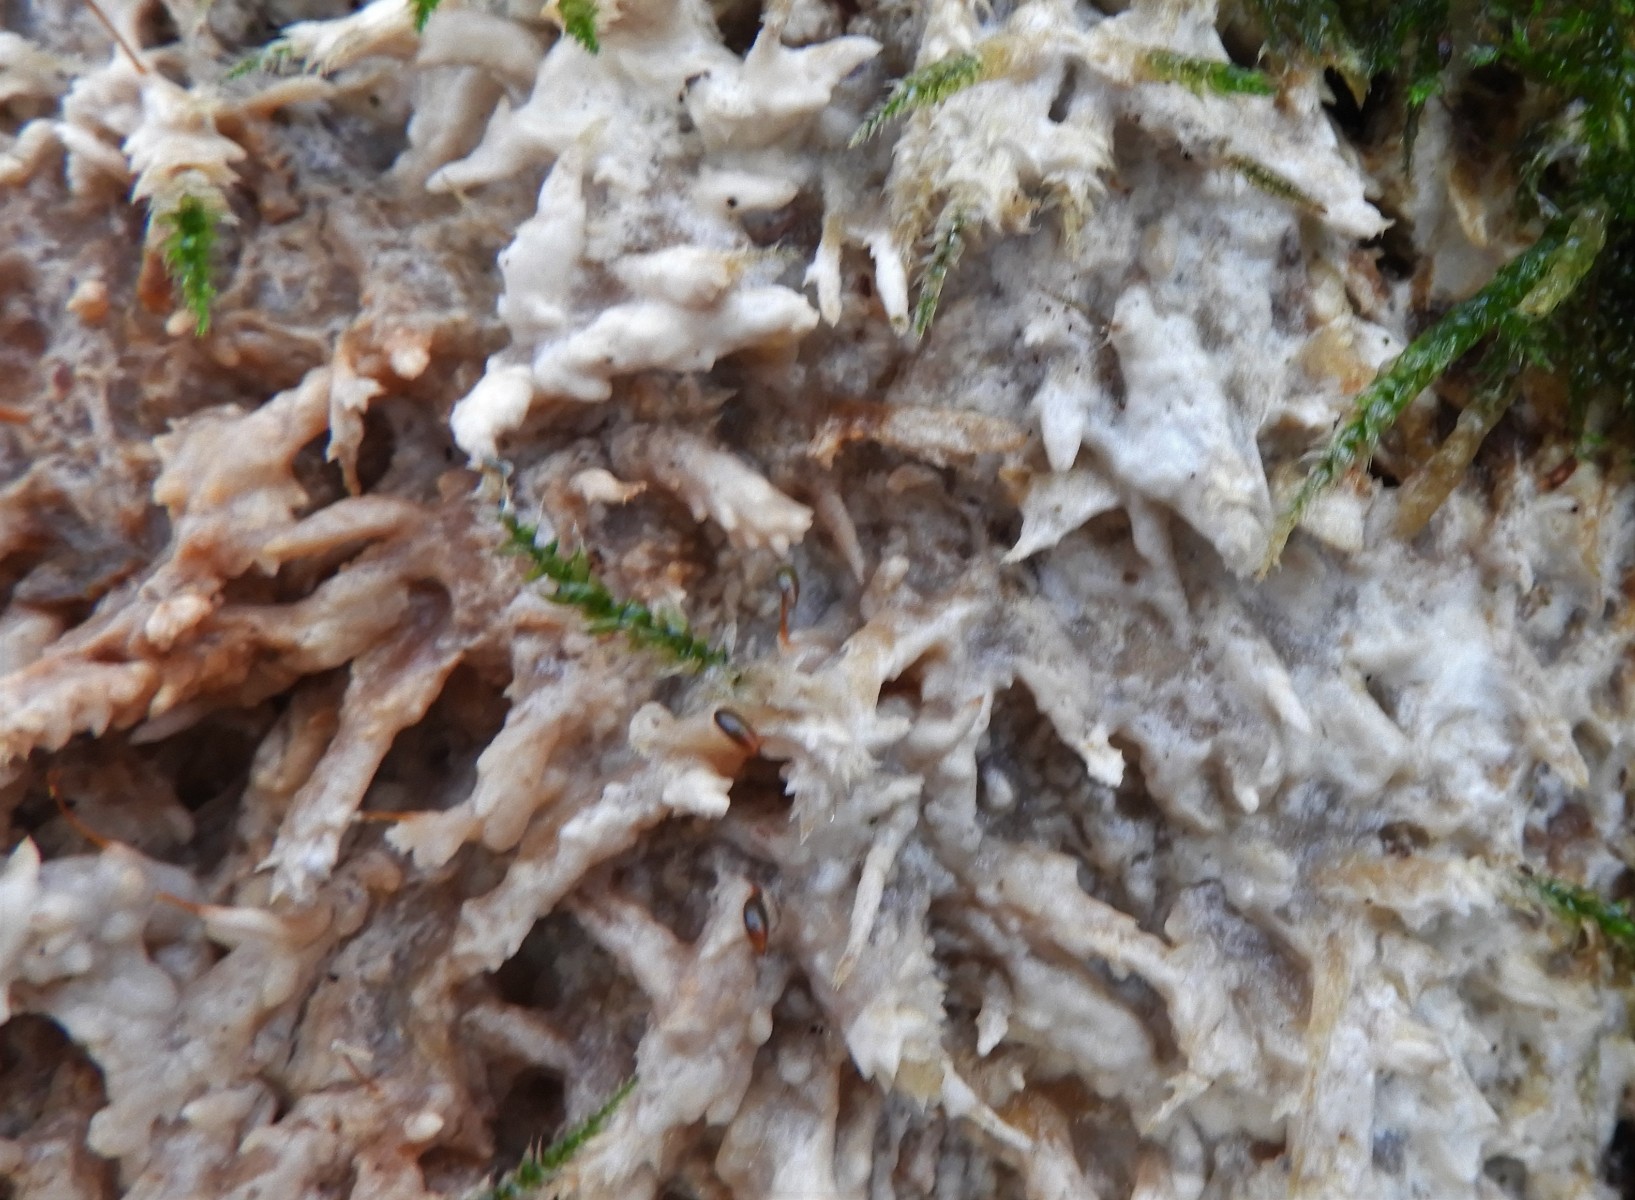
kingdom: Fungi
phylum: Basidiomycota
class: Agaricomycetes
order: Polyporales
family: Meruliaceae
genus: Phlebia
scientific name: Phlebia radiata
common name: stråle-åresvamp
